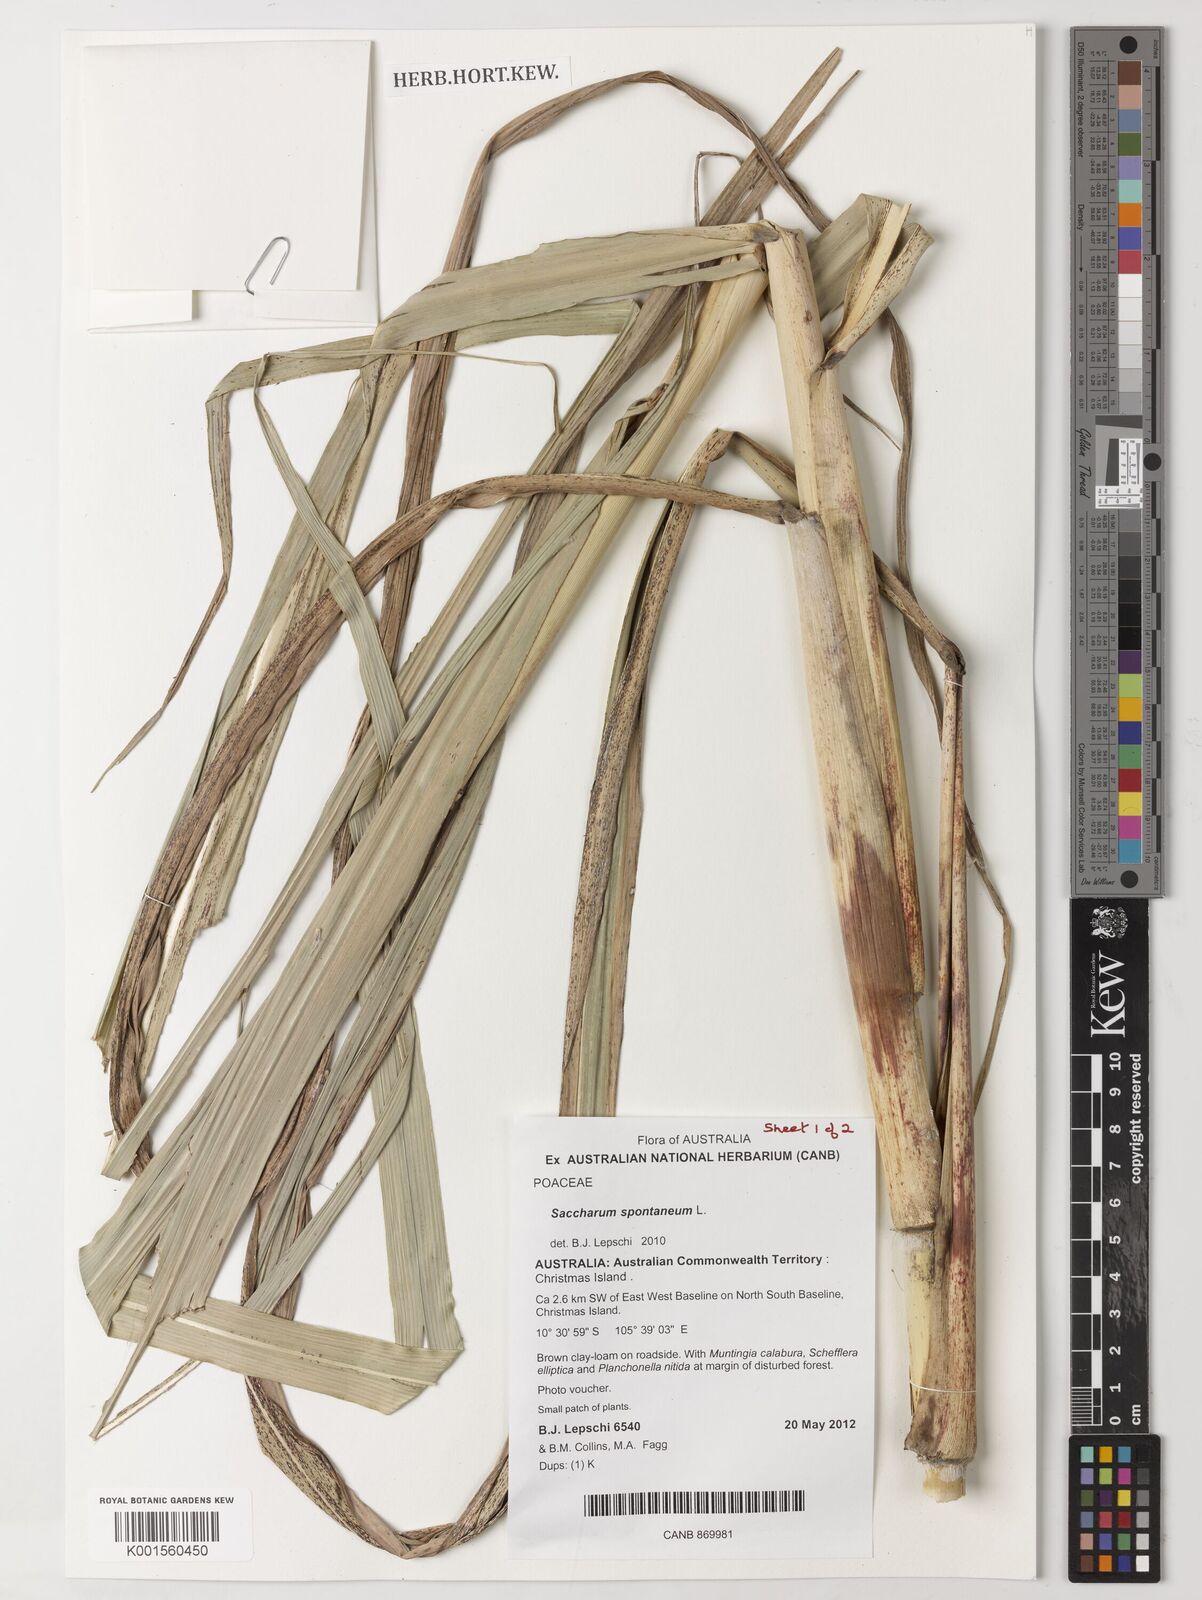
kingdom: Plantae
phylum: Tracheophyta
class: Liliopsida
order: Poales
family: Poaceae
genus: Saccharum
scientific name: Saccharum spontaneum
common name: Wild sugarcane
